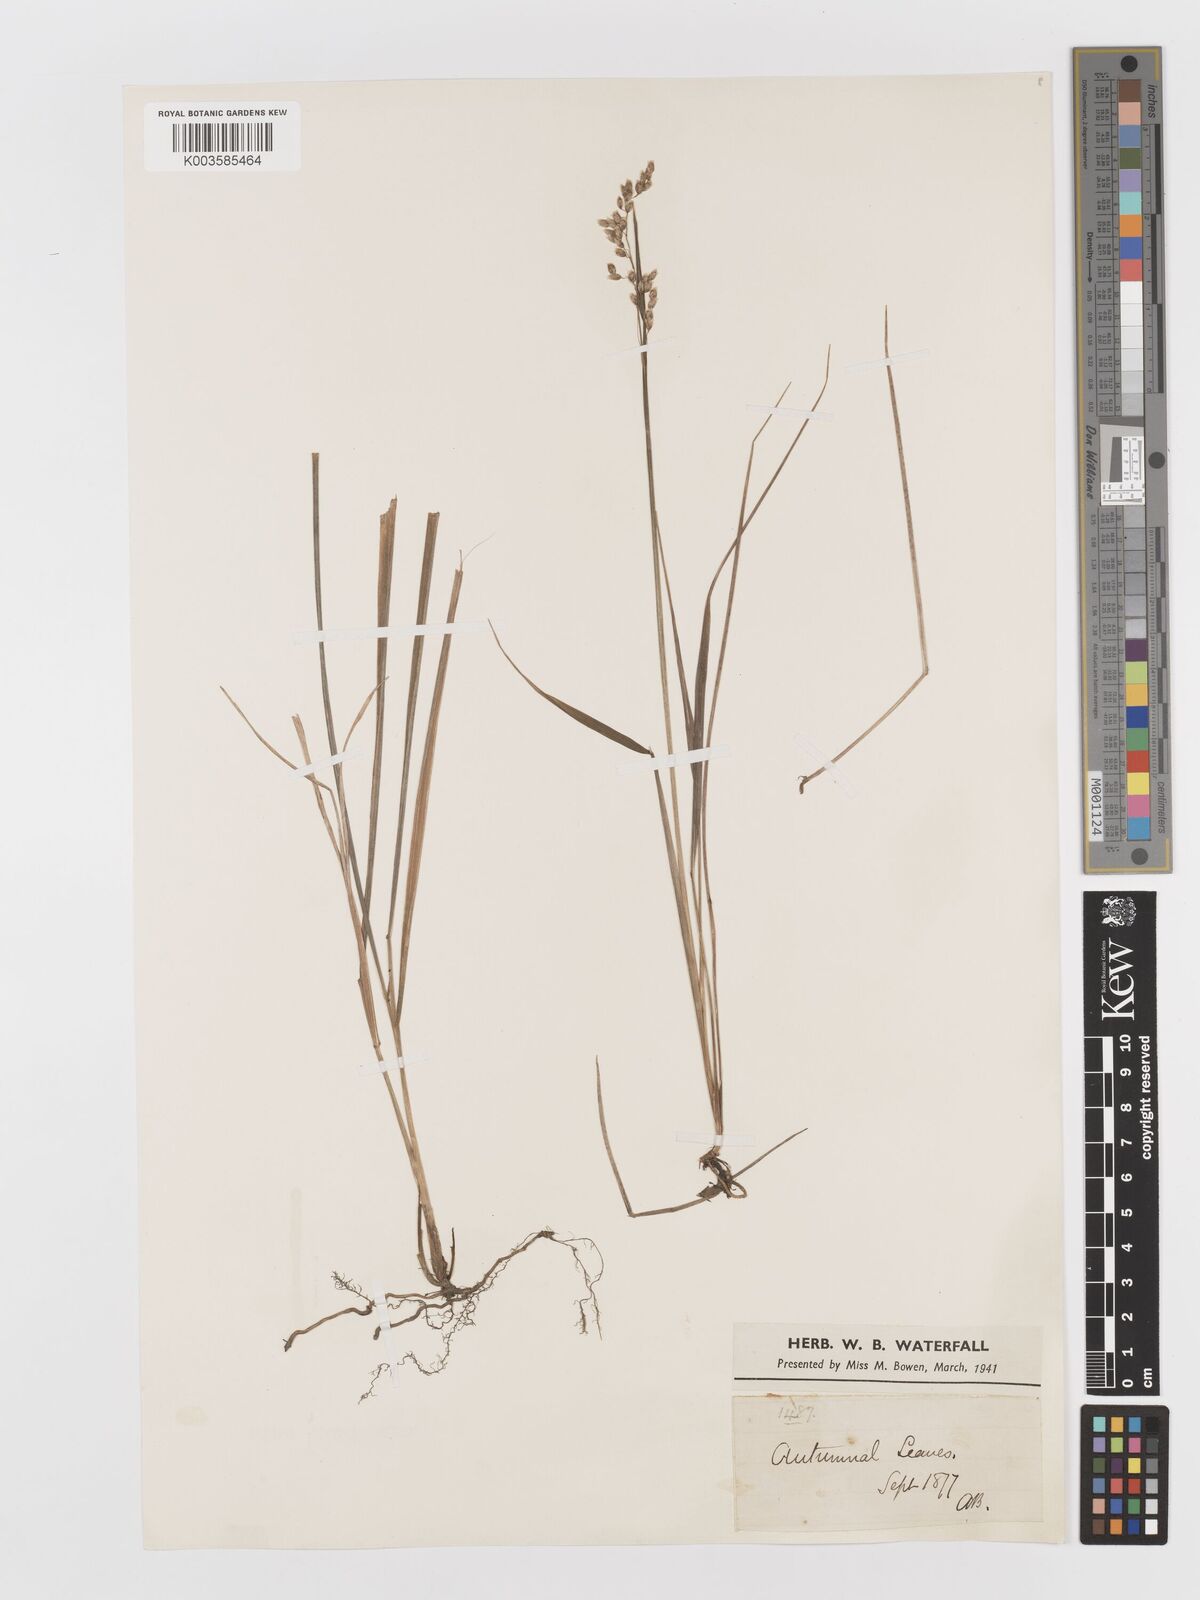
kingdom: Plantae
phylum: Tracheophyta
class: Liliopsida
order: Poales
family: Poaceae
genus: Anthoxanthum
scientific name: Anthoxanthum nitens
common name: Holy grass
